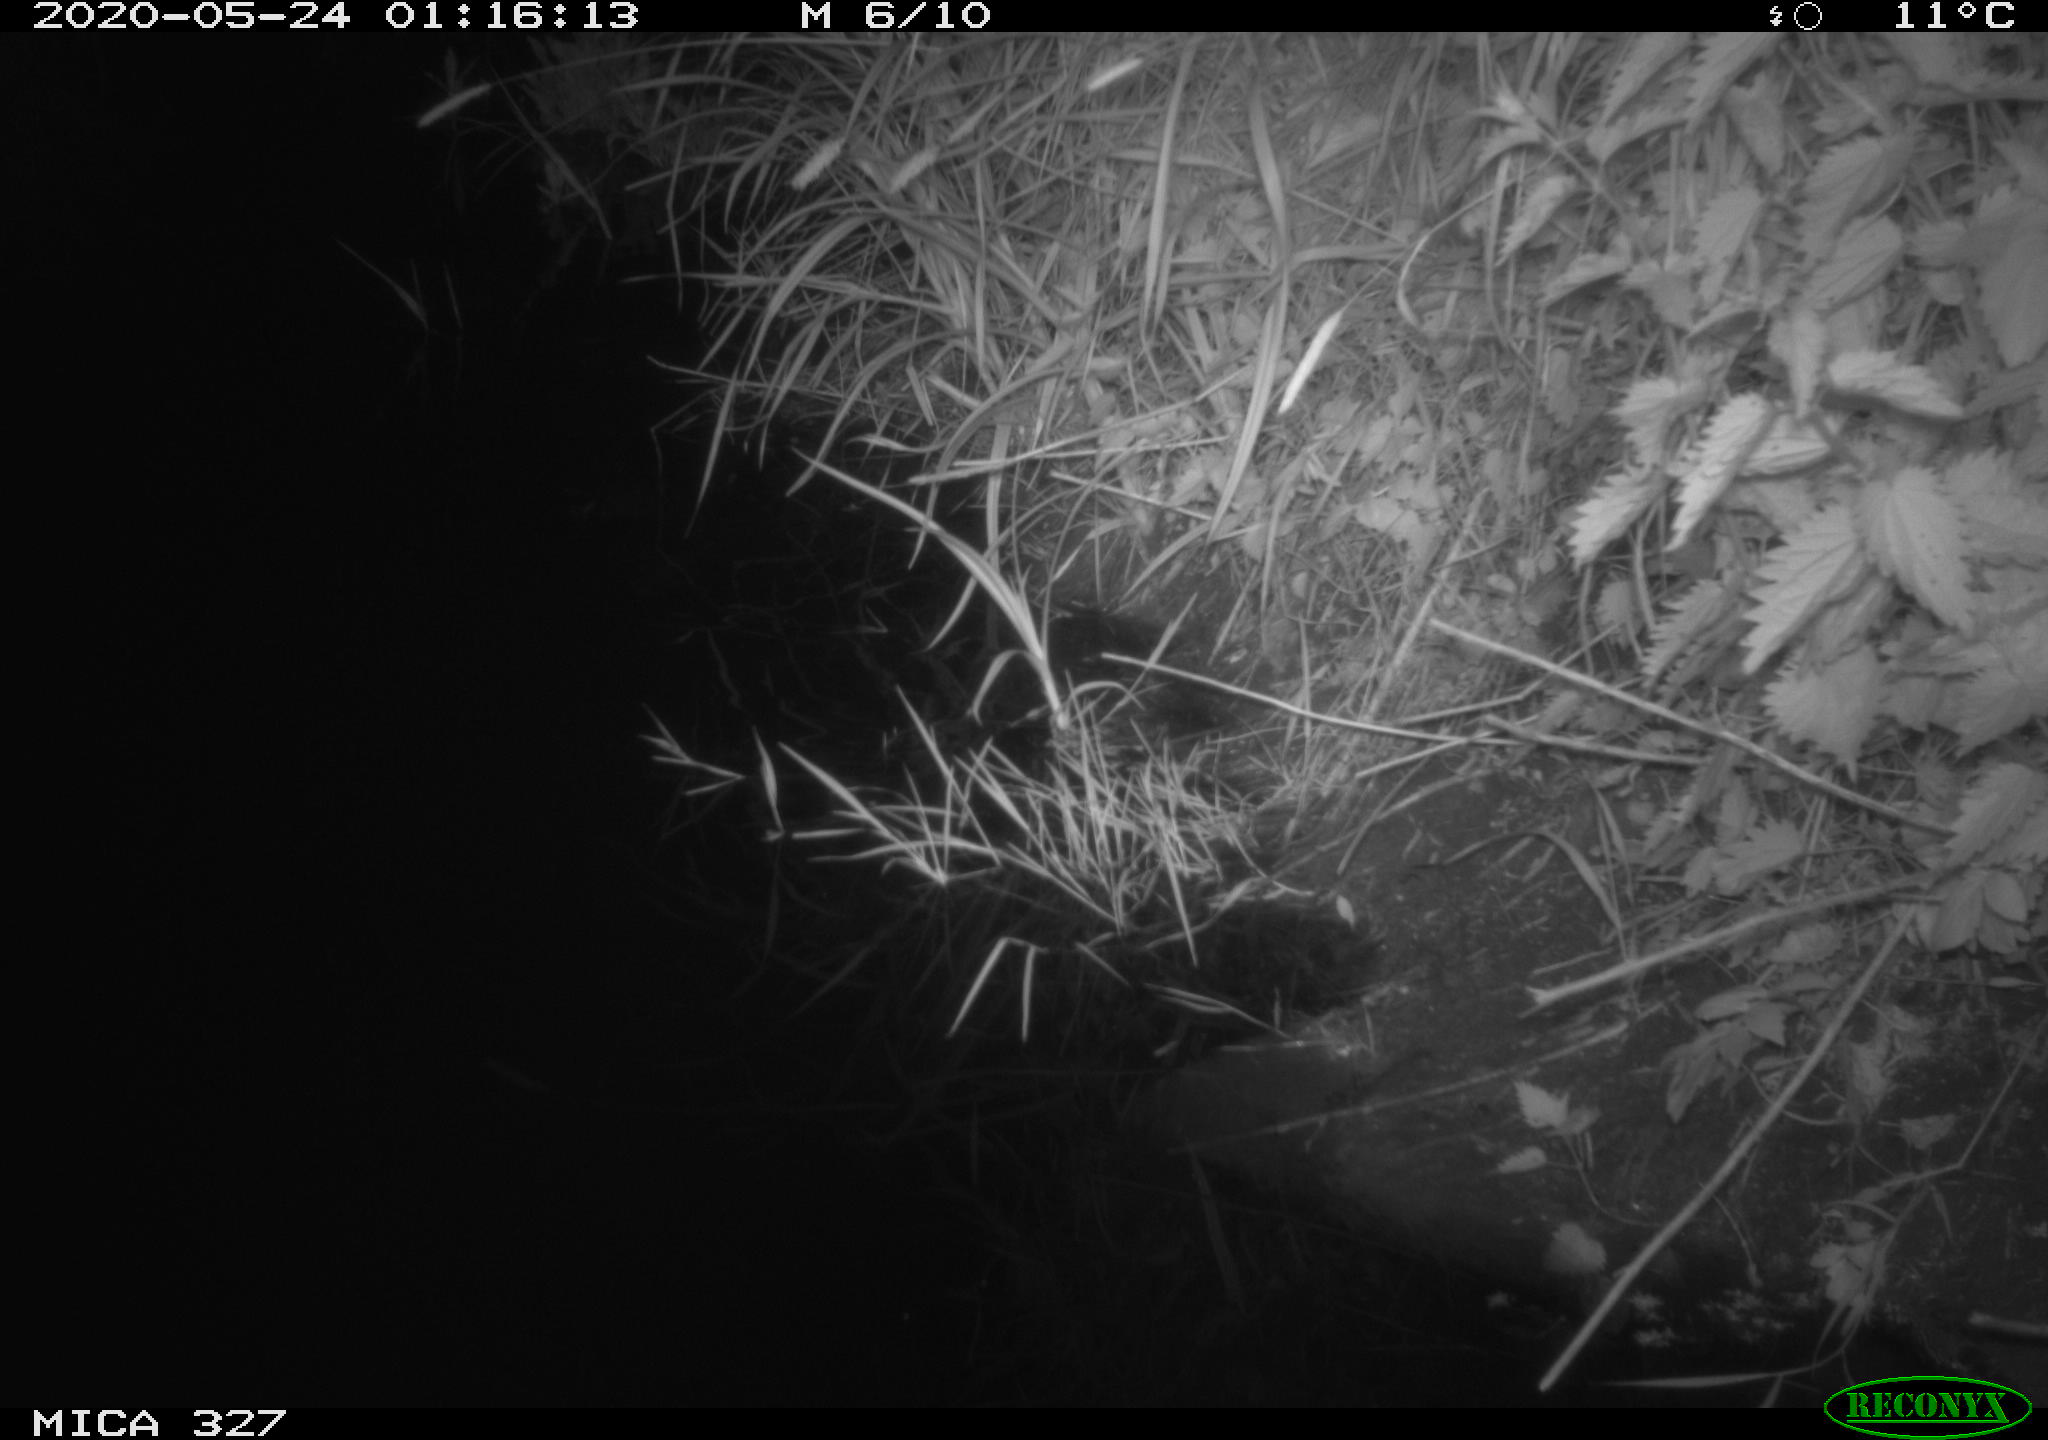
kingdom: Animalia
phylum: Chordata
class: Mammalia
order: Rodentia
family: Muridae
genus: Rattus
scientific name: Rattus norvegicus
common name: Brown rat
